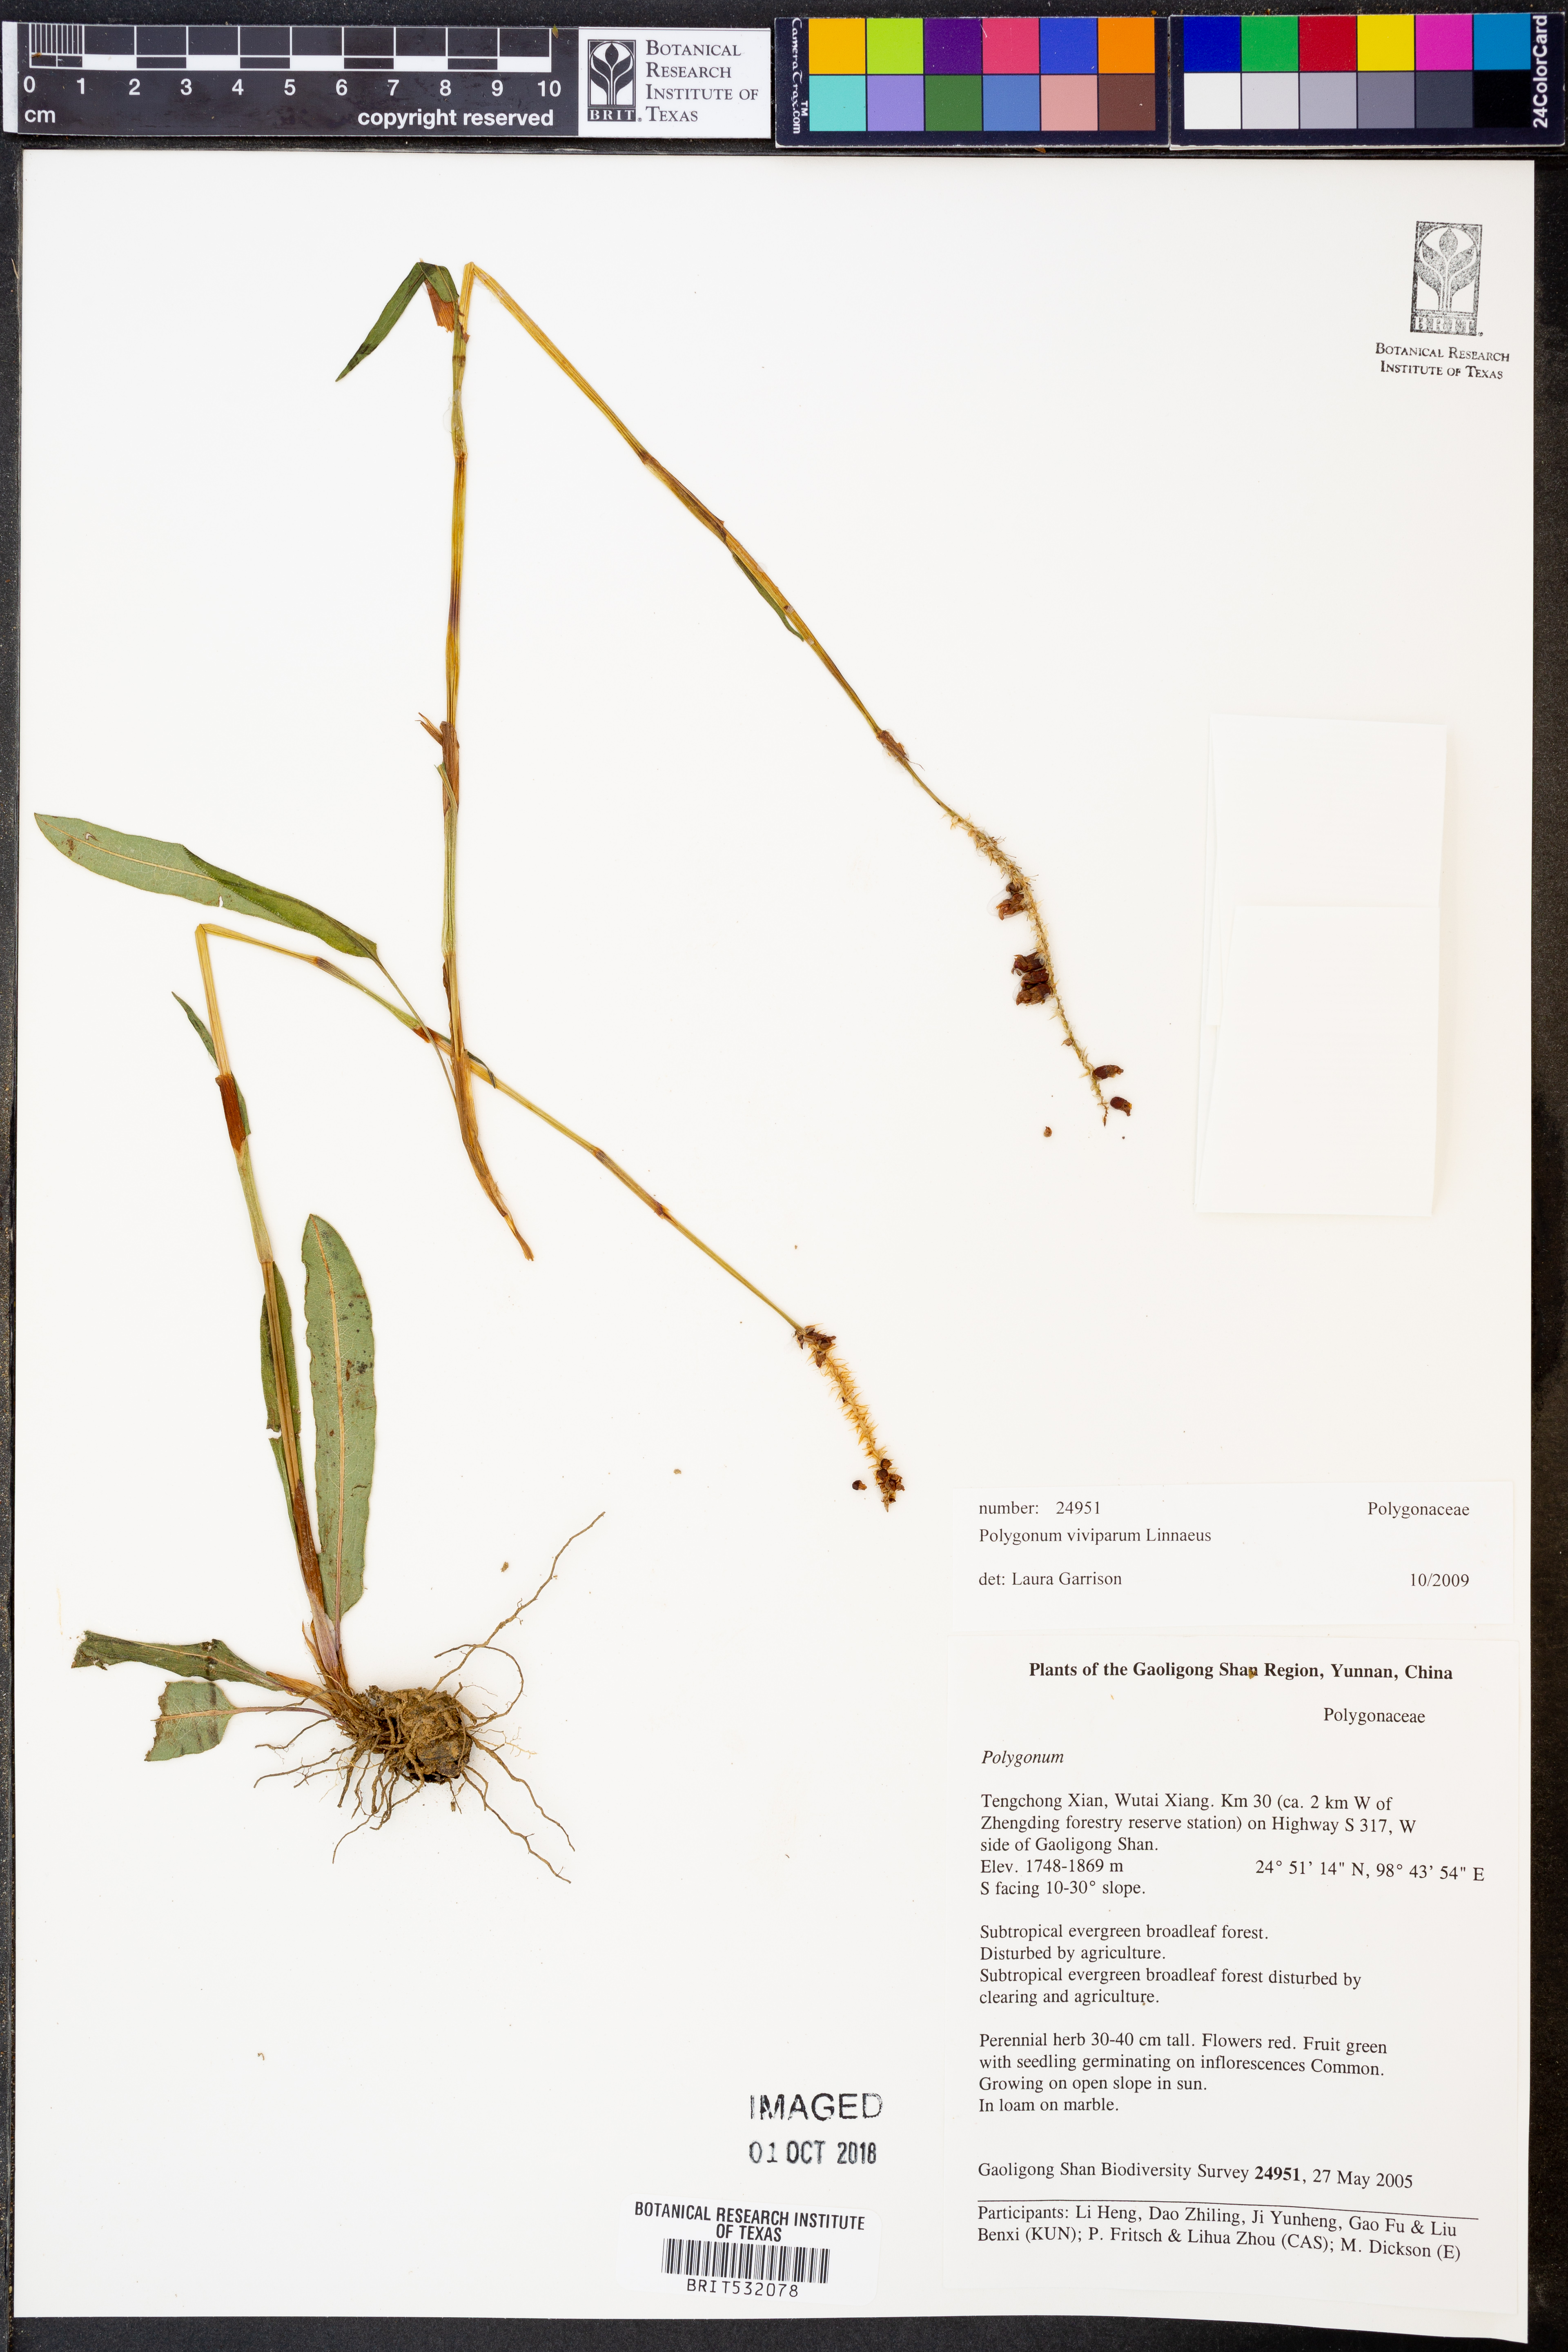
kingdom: Plantae
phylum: Tracheophyta
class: Magnoliopsida
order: Caryophyllales
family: Polygonaceae
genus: Bistorta
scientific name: Bistorta vivipara
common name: Alpine bistort
